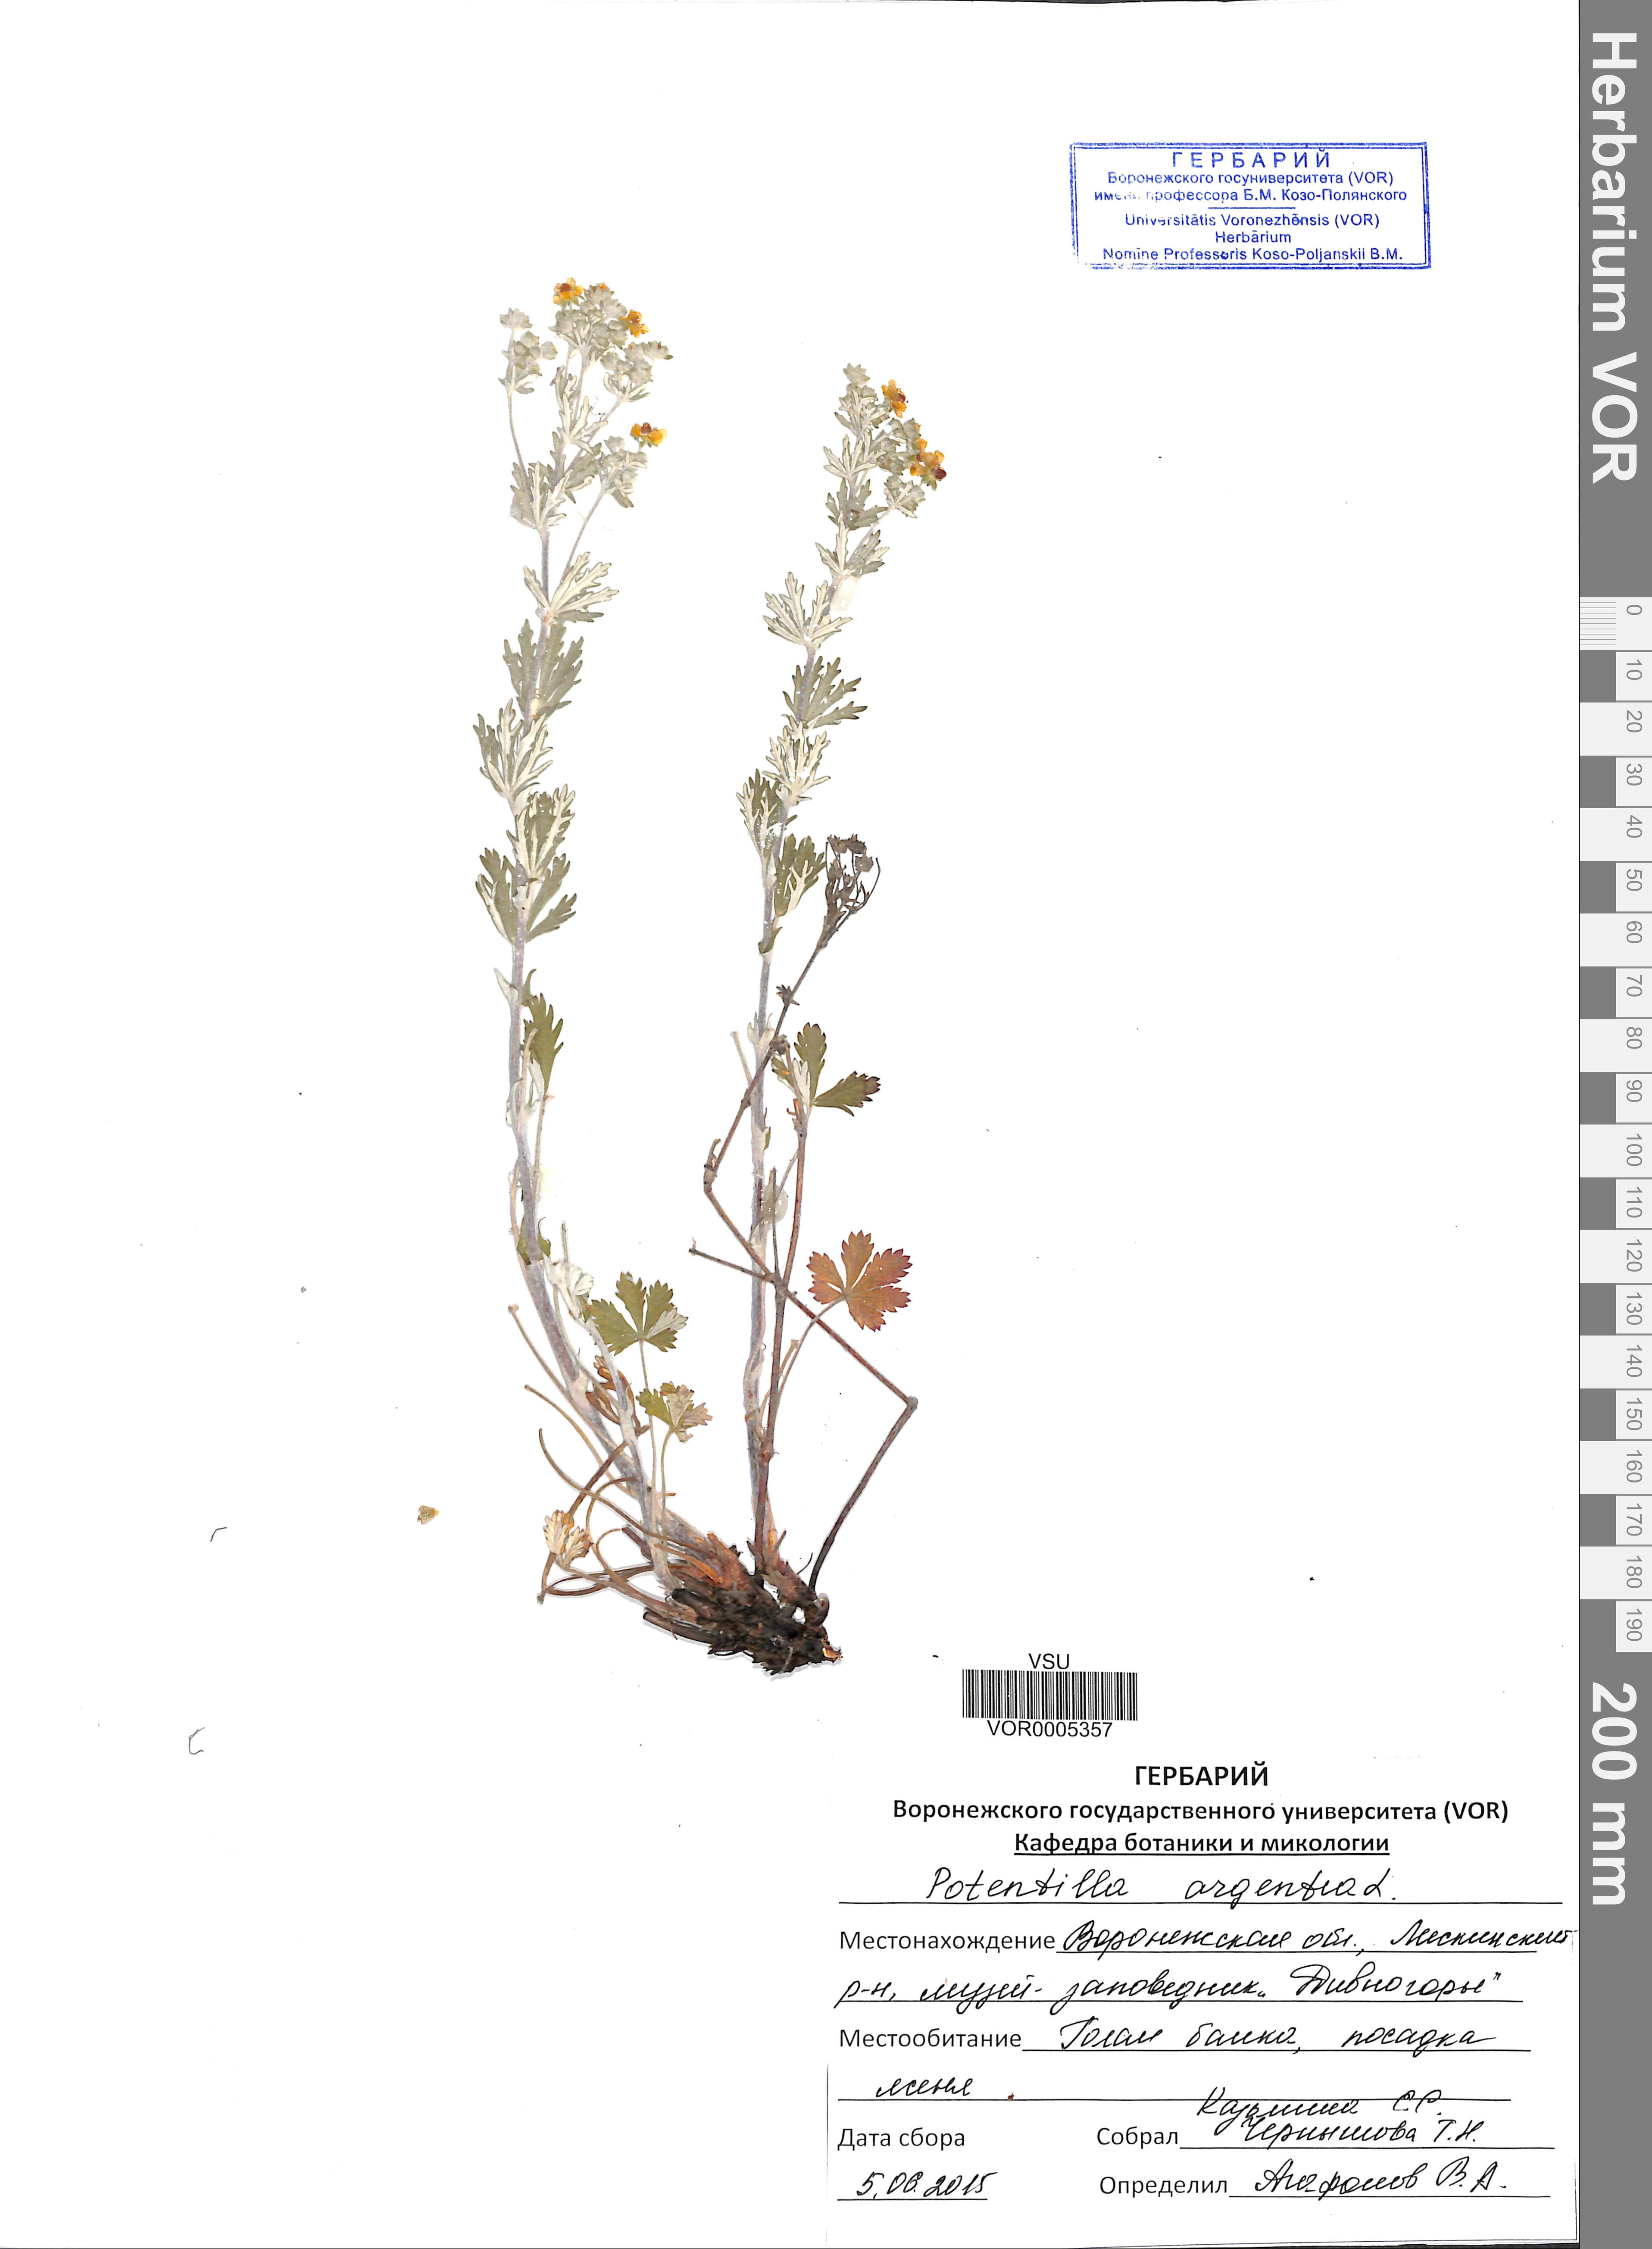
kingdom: Plantae
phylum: Tracheophyta
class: Magnoliopsida
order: Rosales
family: Rosaceae
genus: Potentilla
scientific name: Potentilla argentea
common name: Hoary cinquefoil
